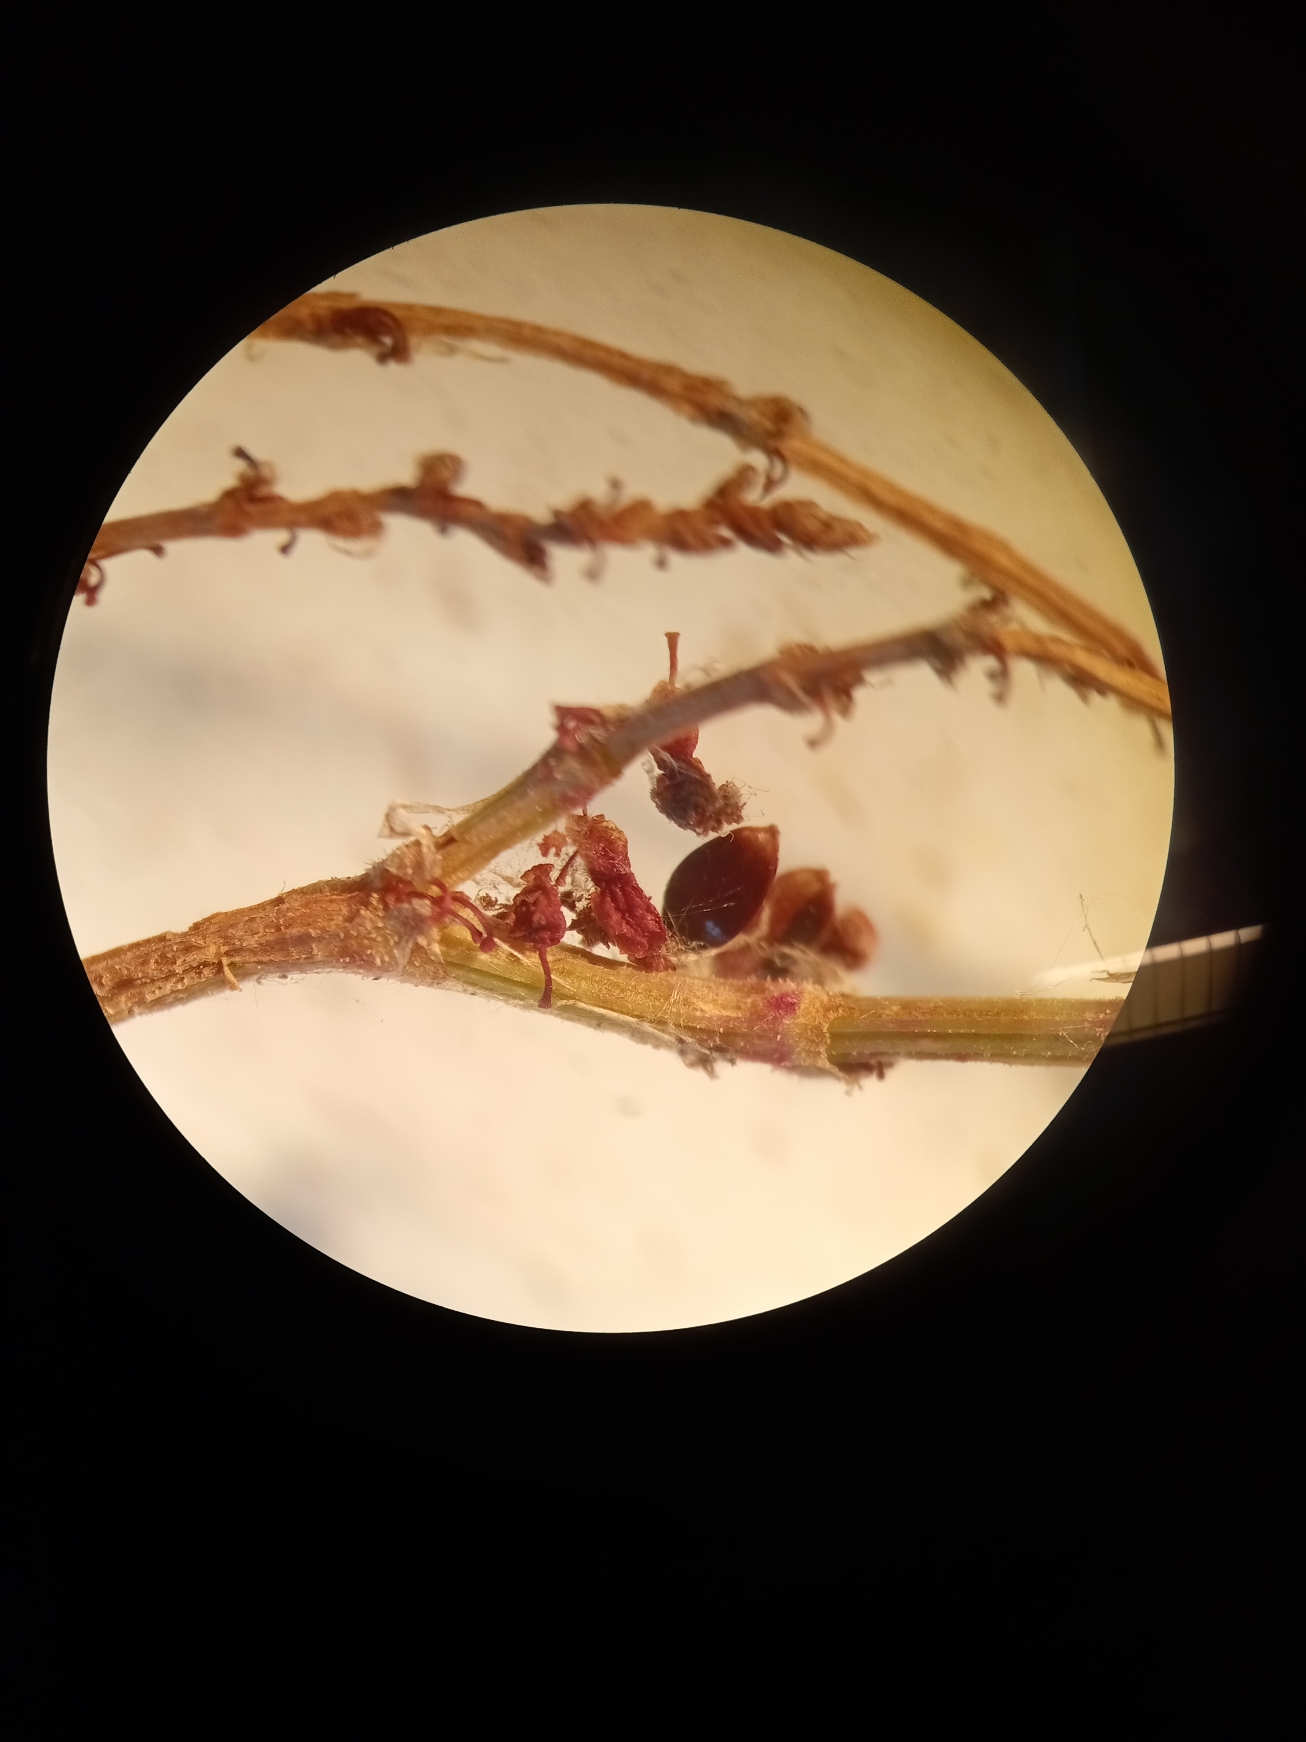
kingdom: Plantae
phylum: Tracheophyta
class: Magnoliopsida
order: Caryophyllales
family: Polygonaceae
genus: Rumex
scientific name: Rumex acetosa
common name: Almindelig syre
